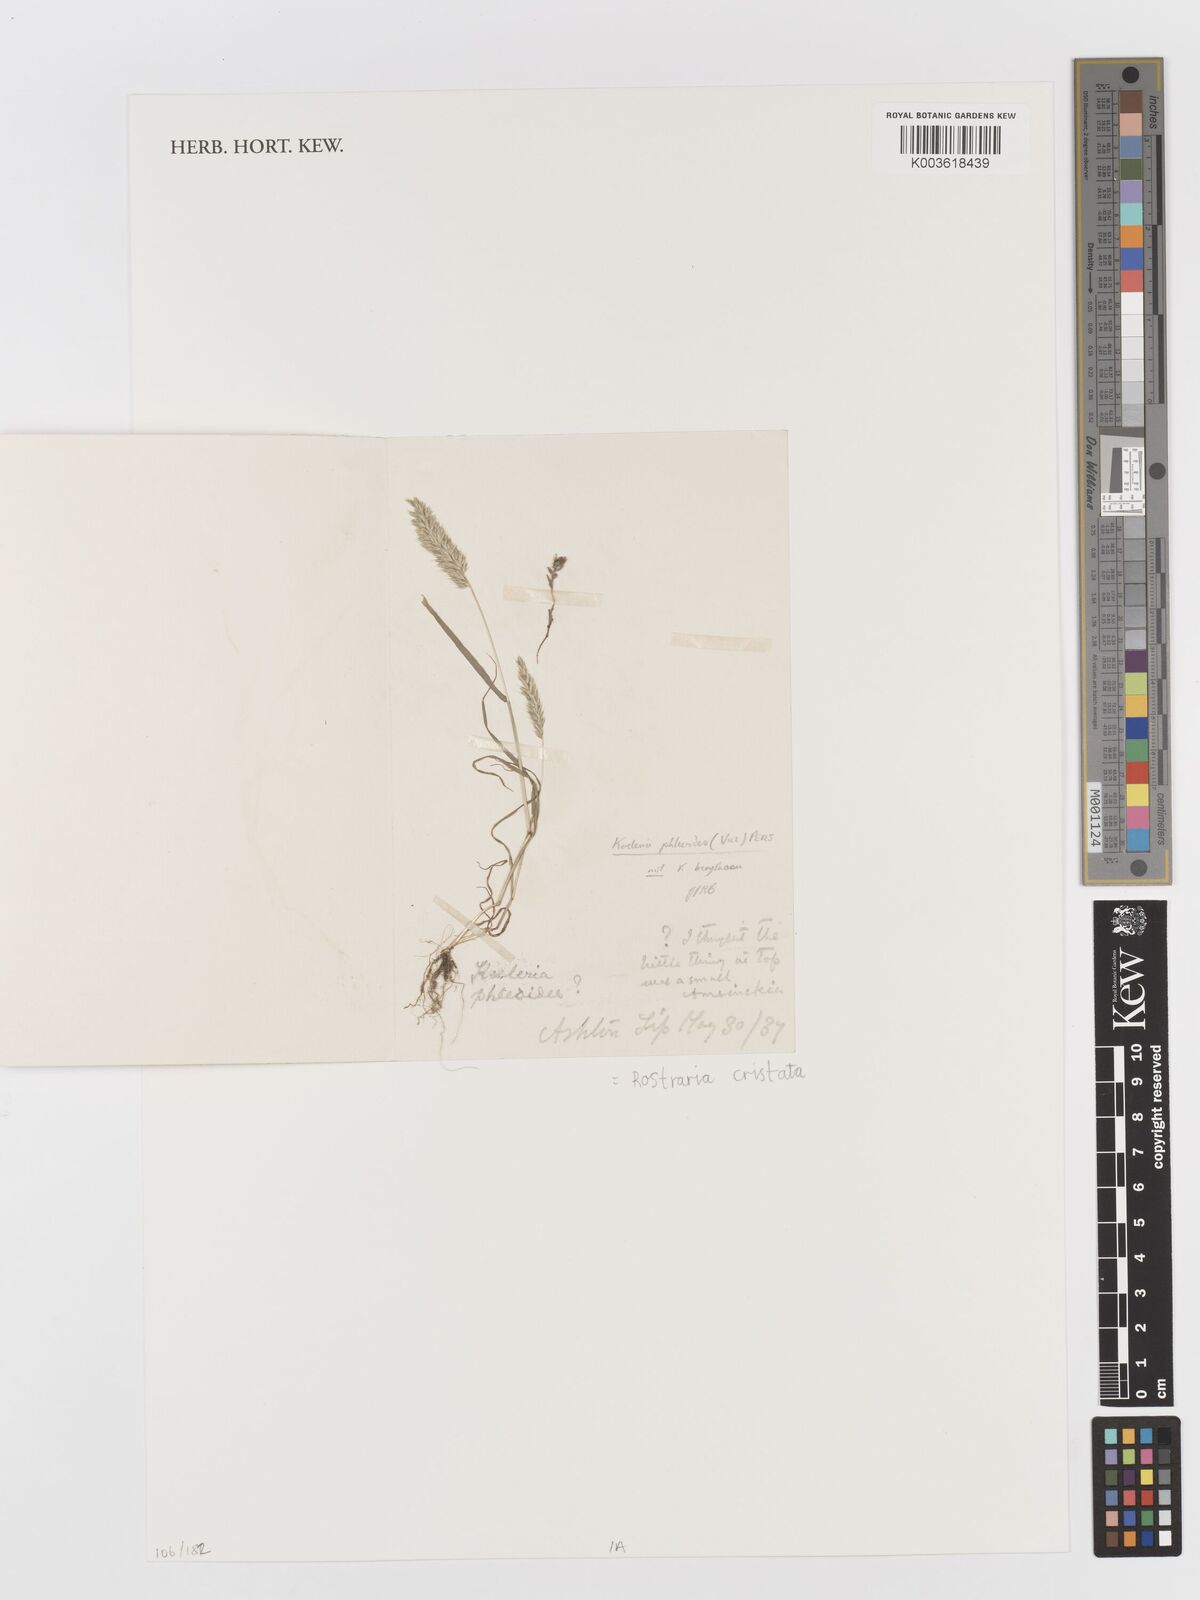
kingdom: Plantae
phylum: Tracheophyta
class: Liliopsida
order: Poales
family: Poaceae
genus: Rostraria
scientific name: Rostraria cristata
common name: Mediterranean hair-grass
